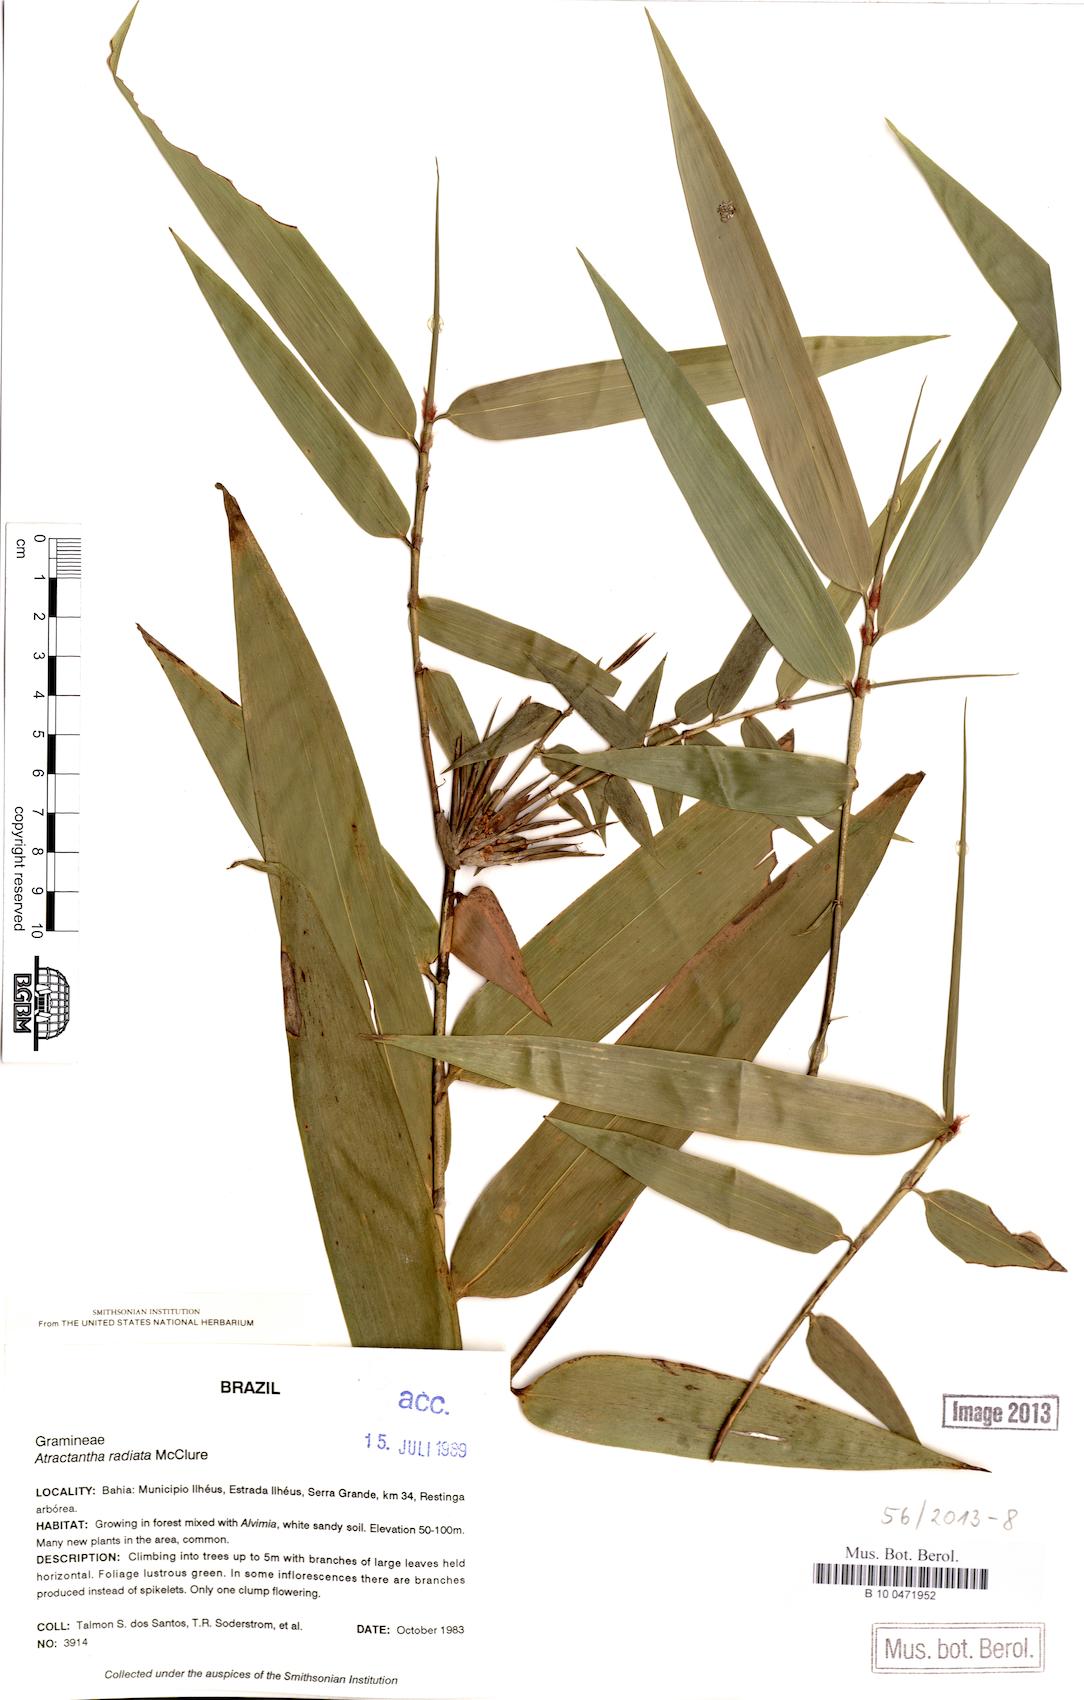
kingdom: Plantae
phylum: Tracheophyta
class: Liliopsida
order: Poales
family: Poaceae
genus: Atractantha
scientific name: Atractantha radiata
